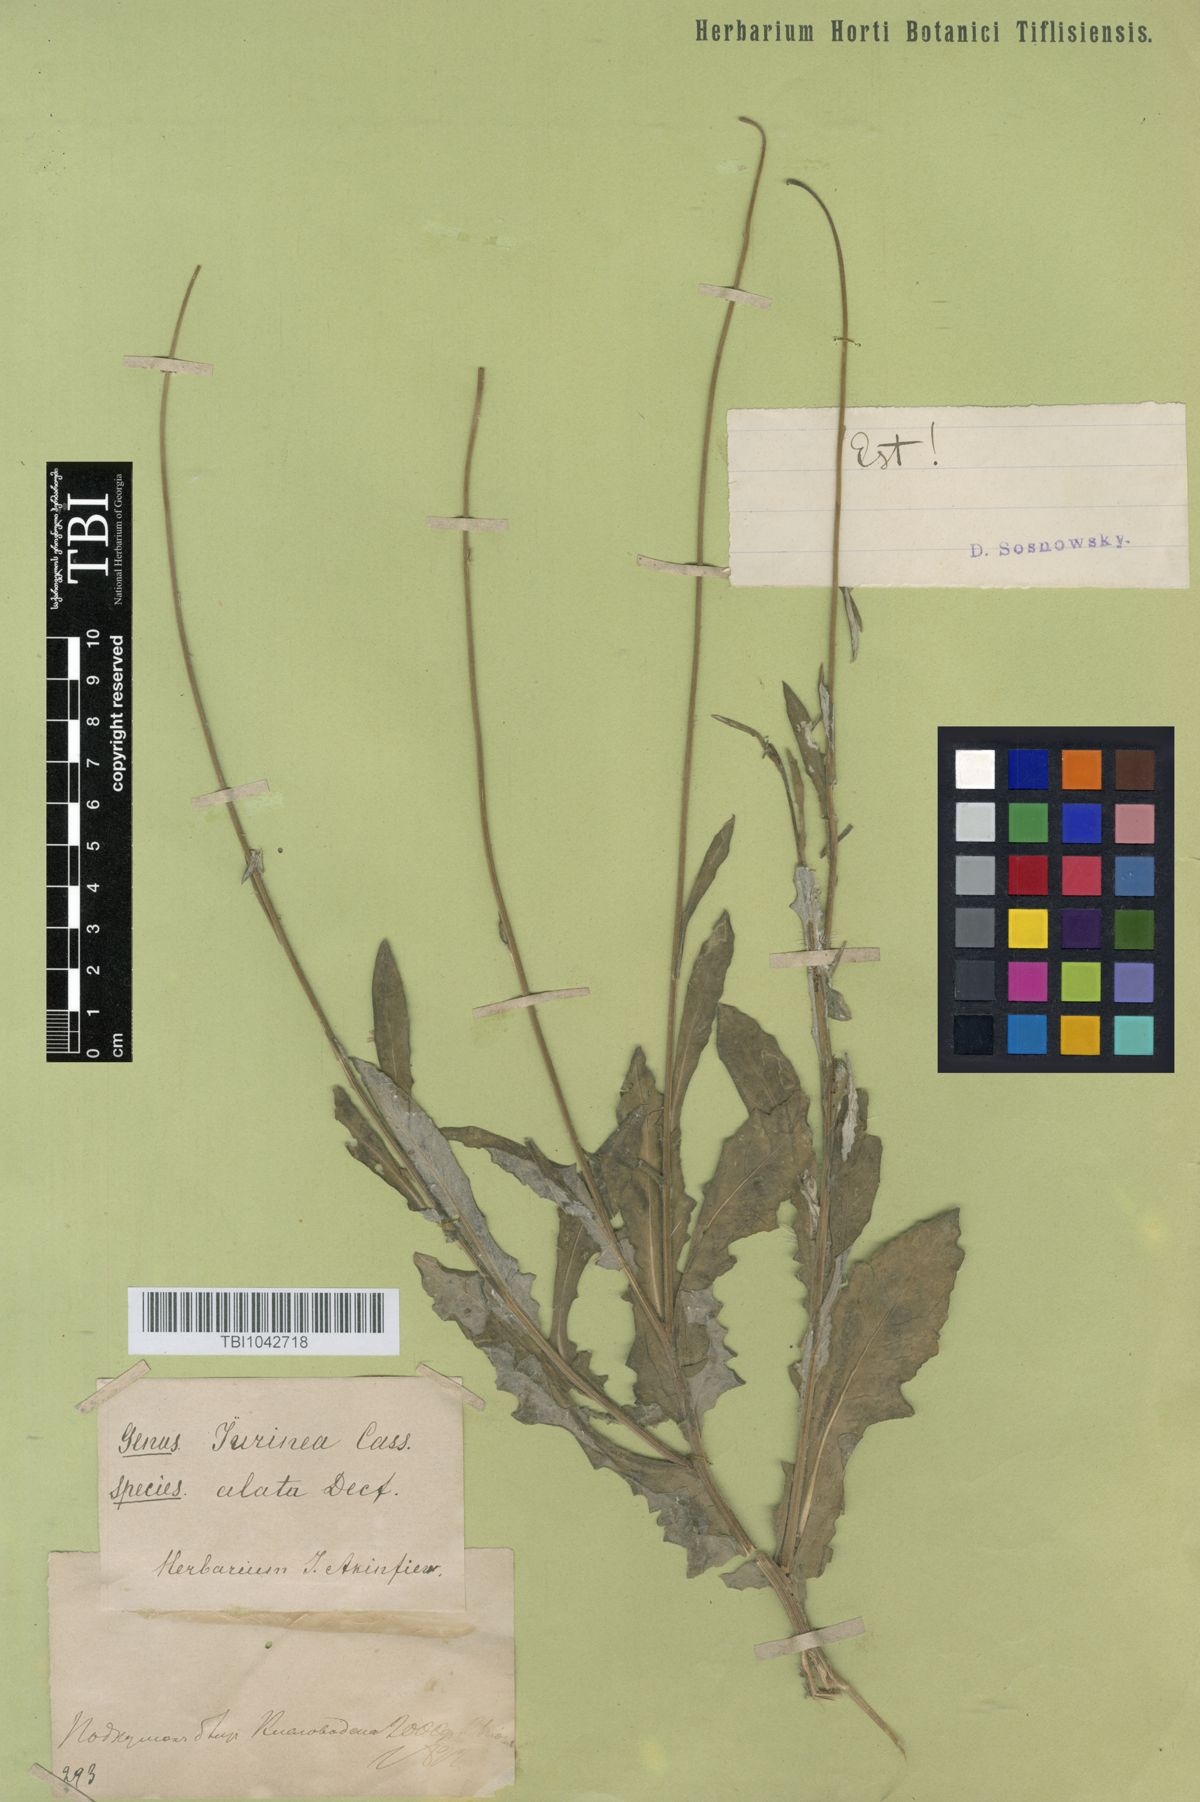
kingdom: Plantae
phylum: Tracheophyta
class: Magnoliopsida
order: Asterales
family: Asteraceae
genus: Jurinea
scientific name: Jurinea alata
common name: Winged jurinea
